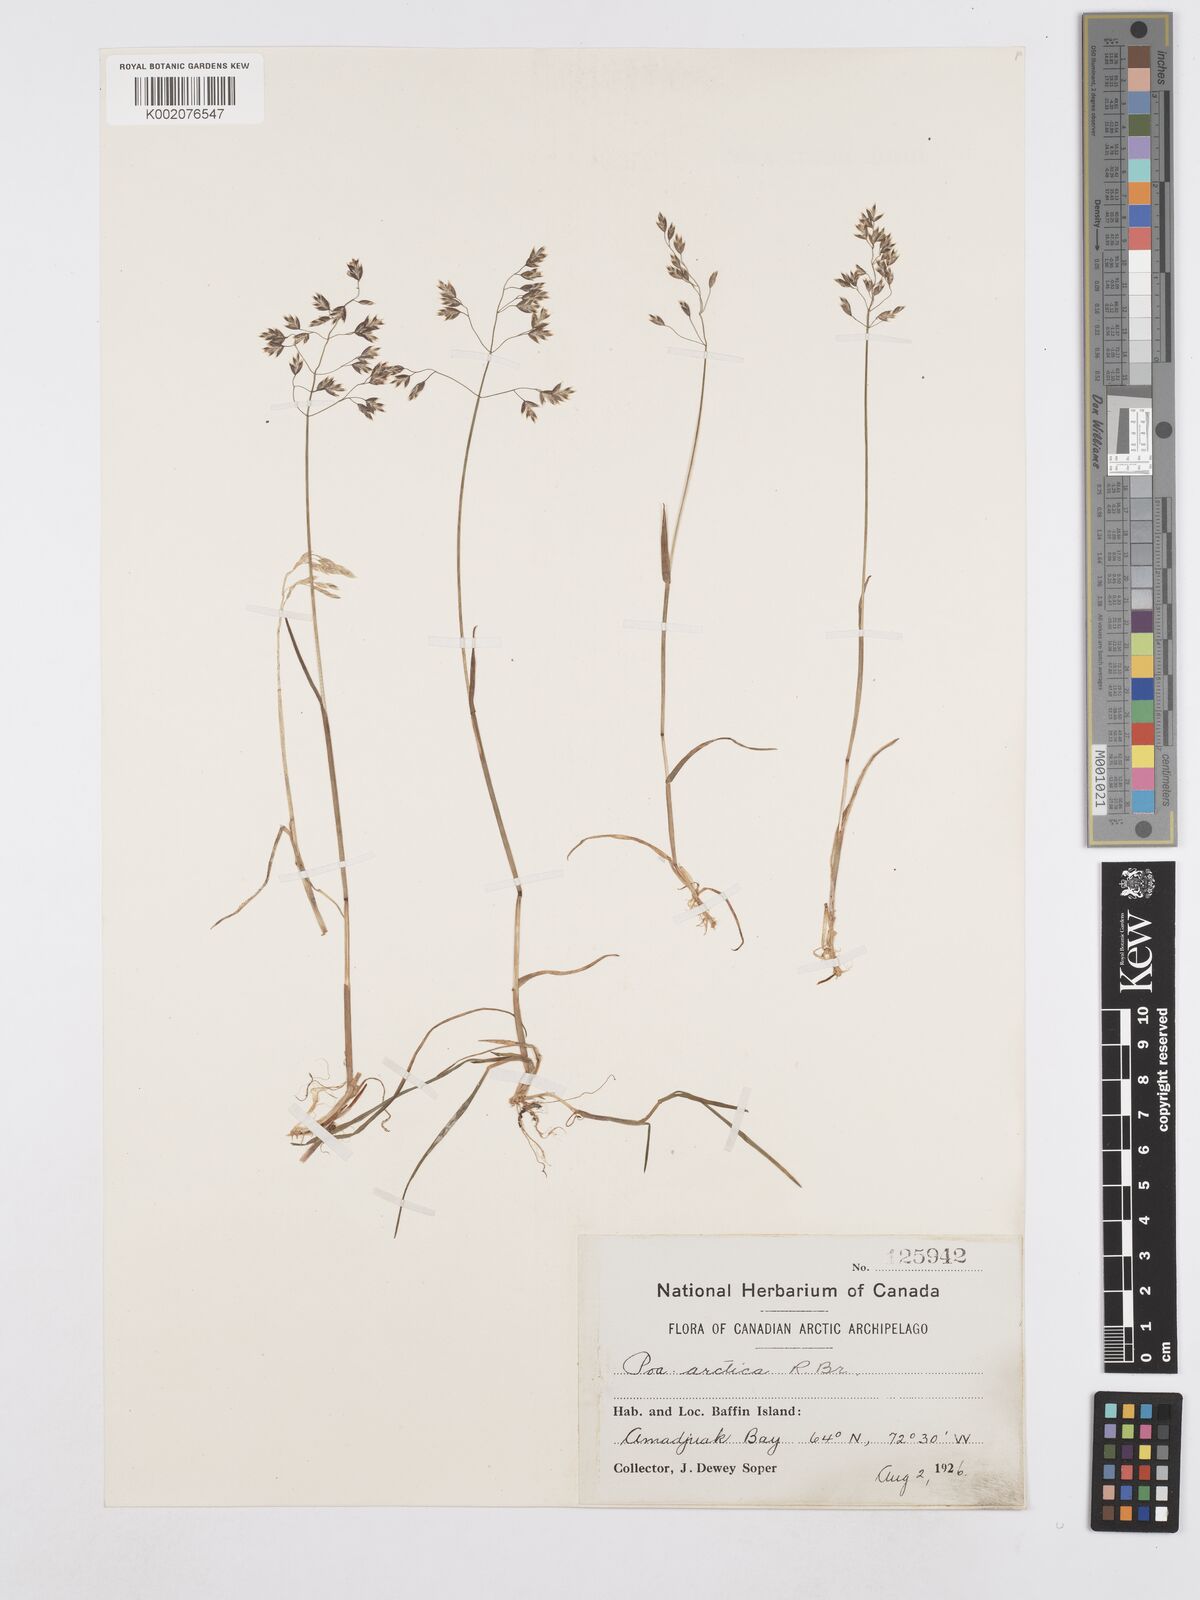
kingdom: Plantae
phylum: Tracheophyta
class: Liliopsida
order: Poales
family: Poaceae
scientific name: Poaceae
